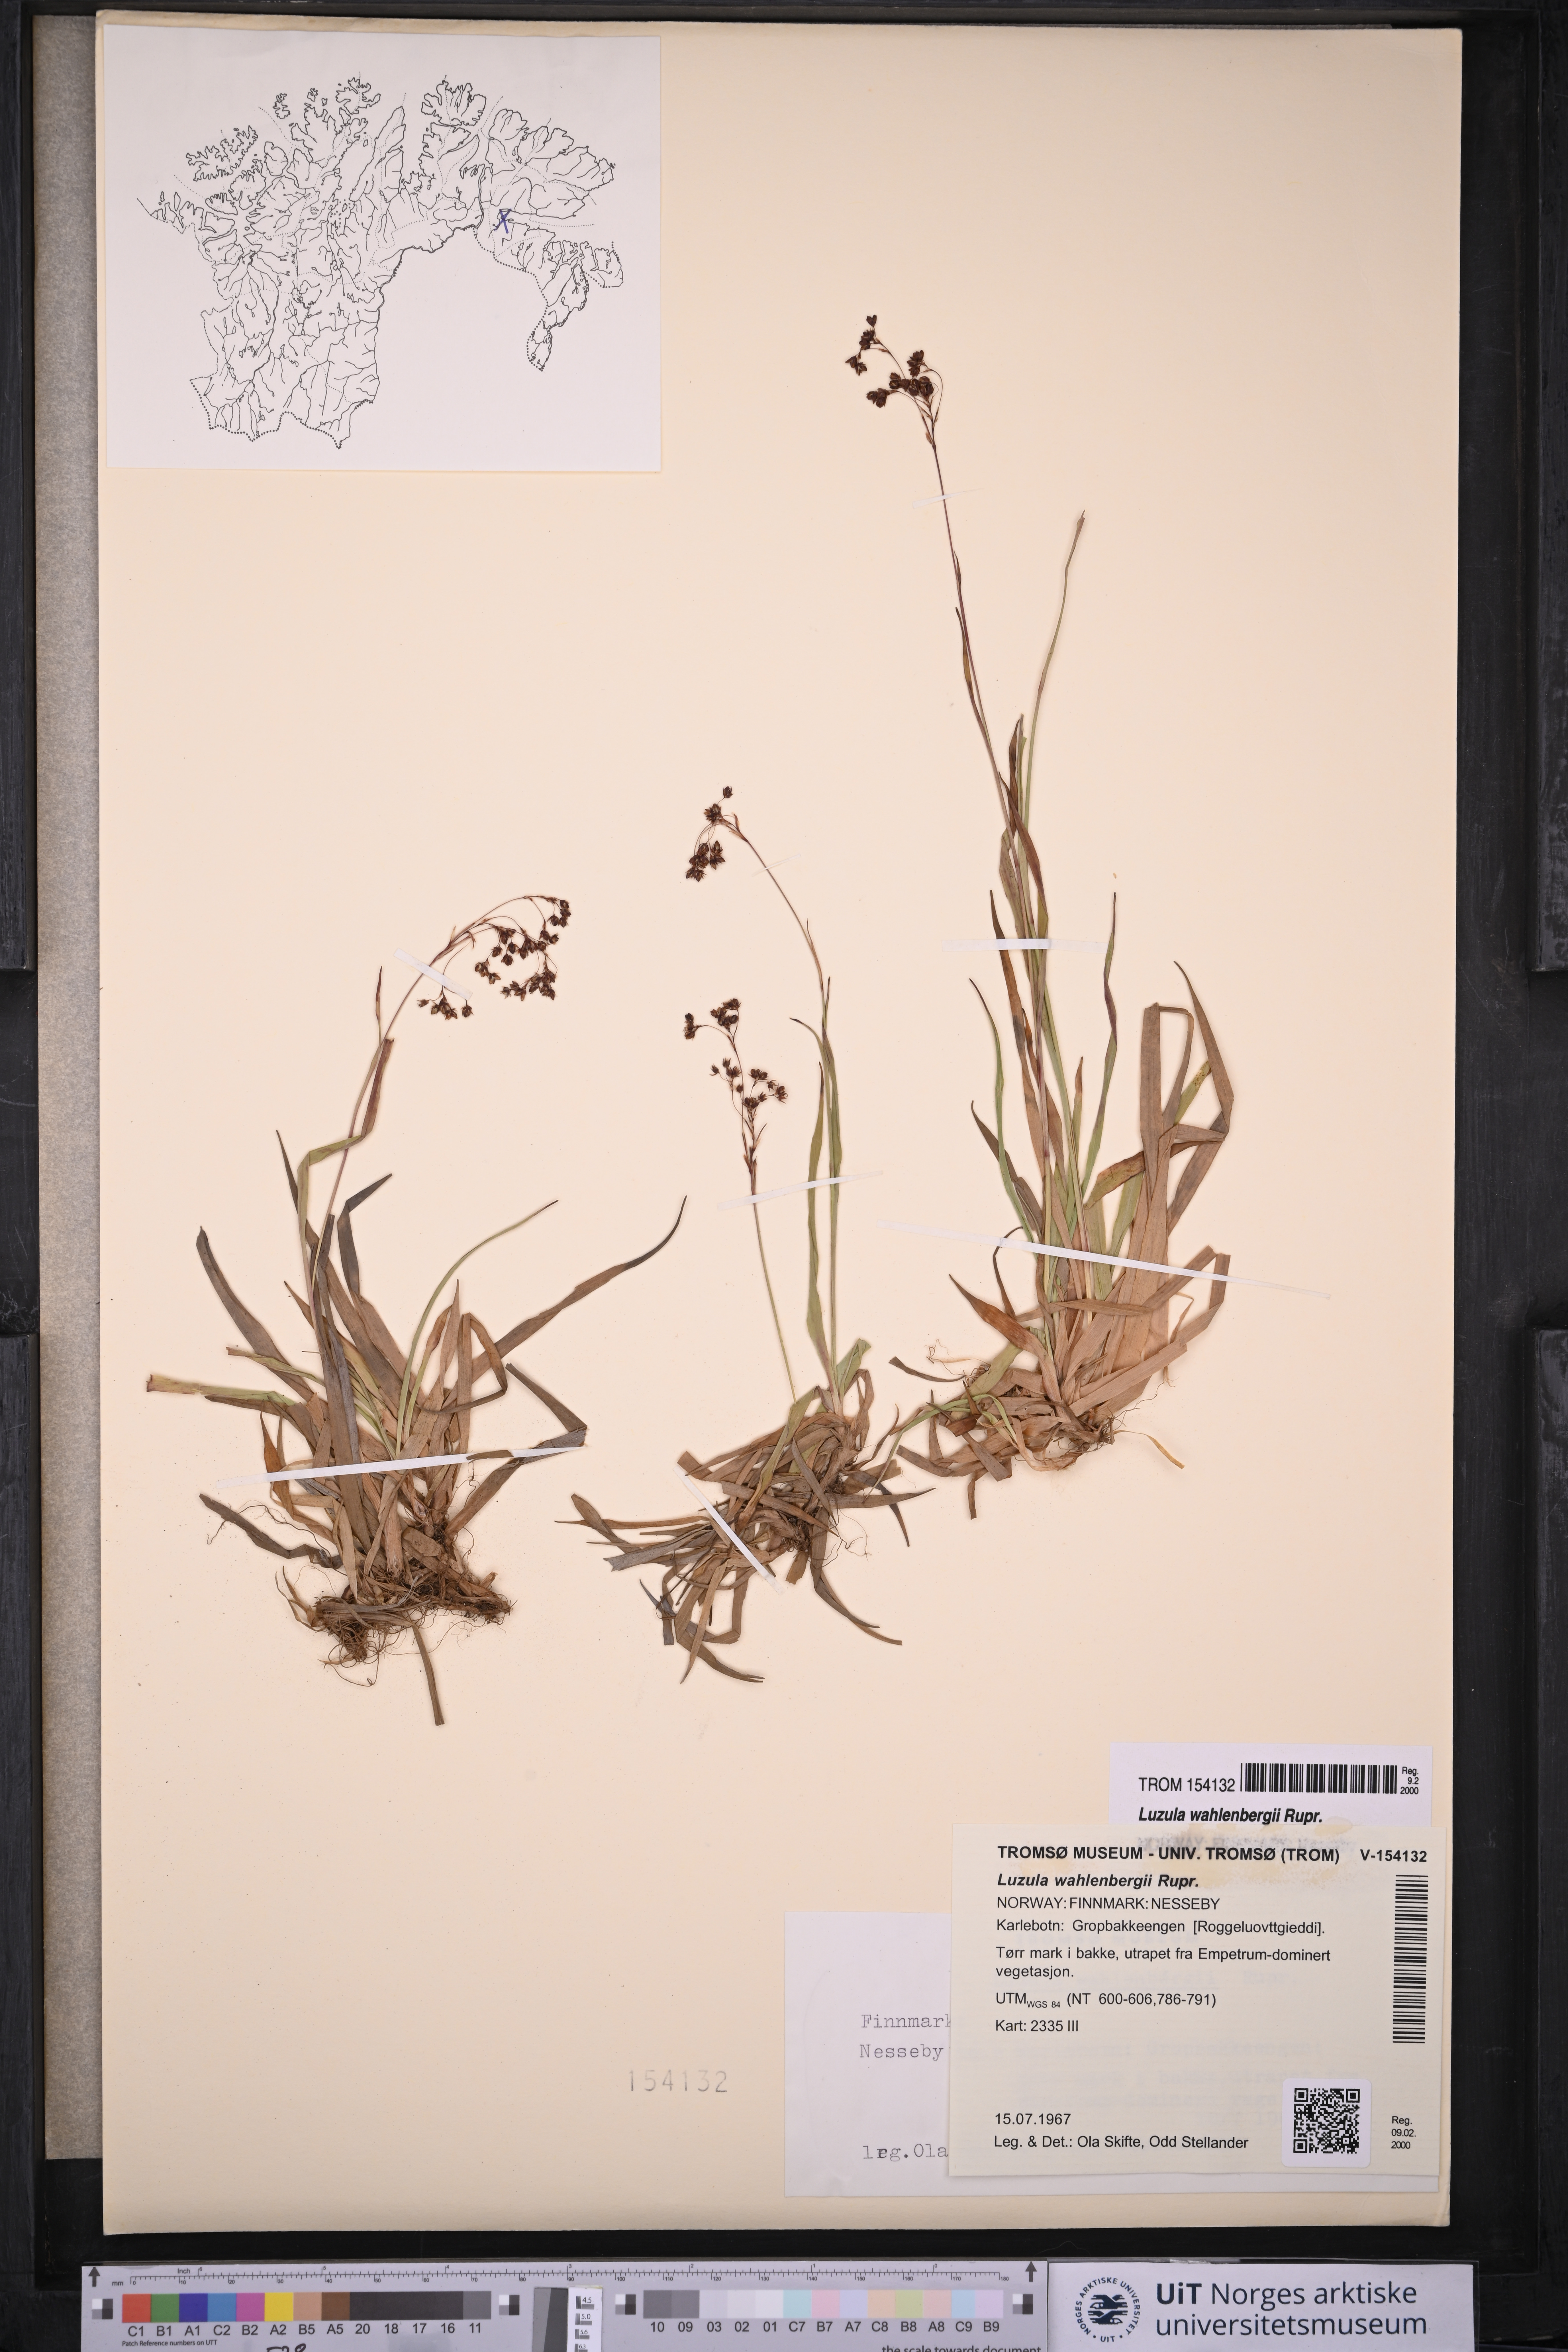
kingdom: Plantae
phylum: Tracheophyta
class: Liliopsida
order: Poales
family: Juncaceae
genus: Luzula
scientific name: Luzula wahlenbergii
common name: Wahlenberg's wood-rush
